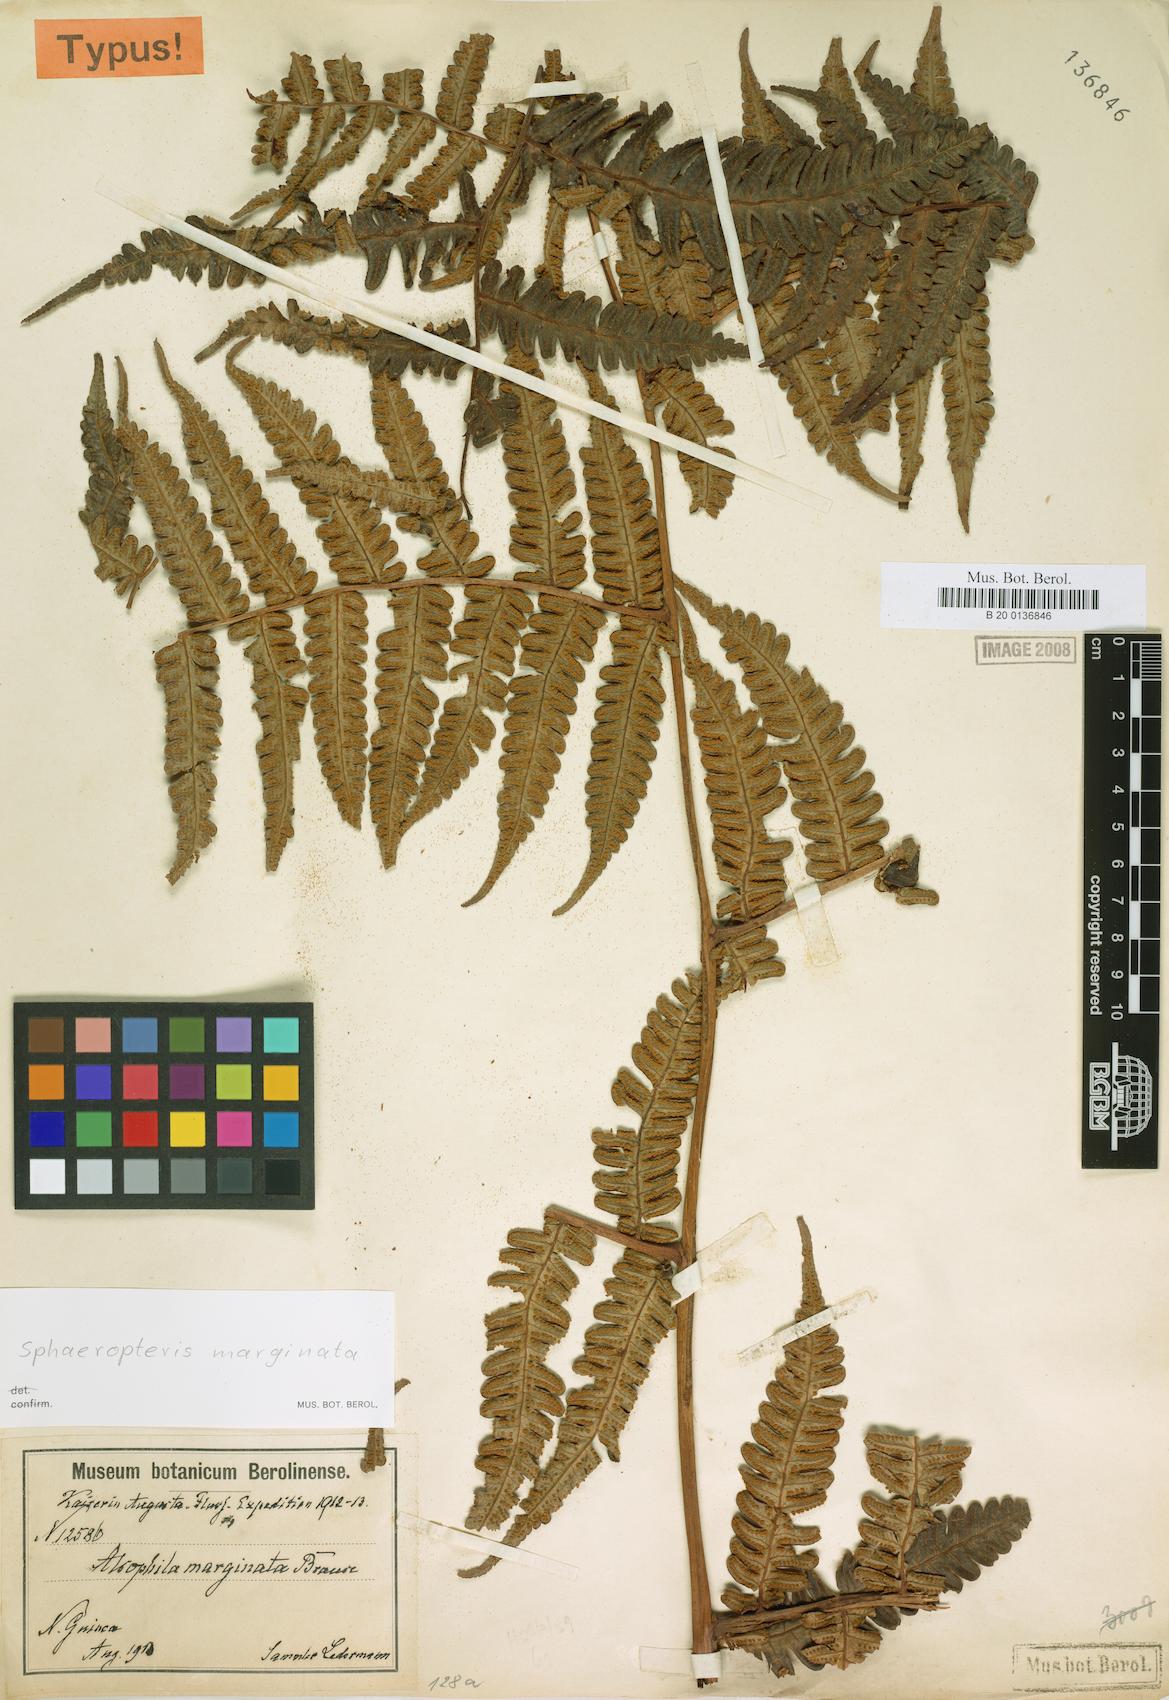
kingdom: Plantae
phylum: Tracheophyta
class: Polypodiopsida
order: Cyatheales
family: Cyatheaceae
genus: Sphaeropteris
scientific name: Sphaeropteris marginata
